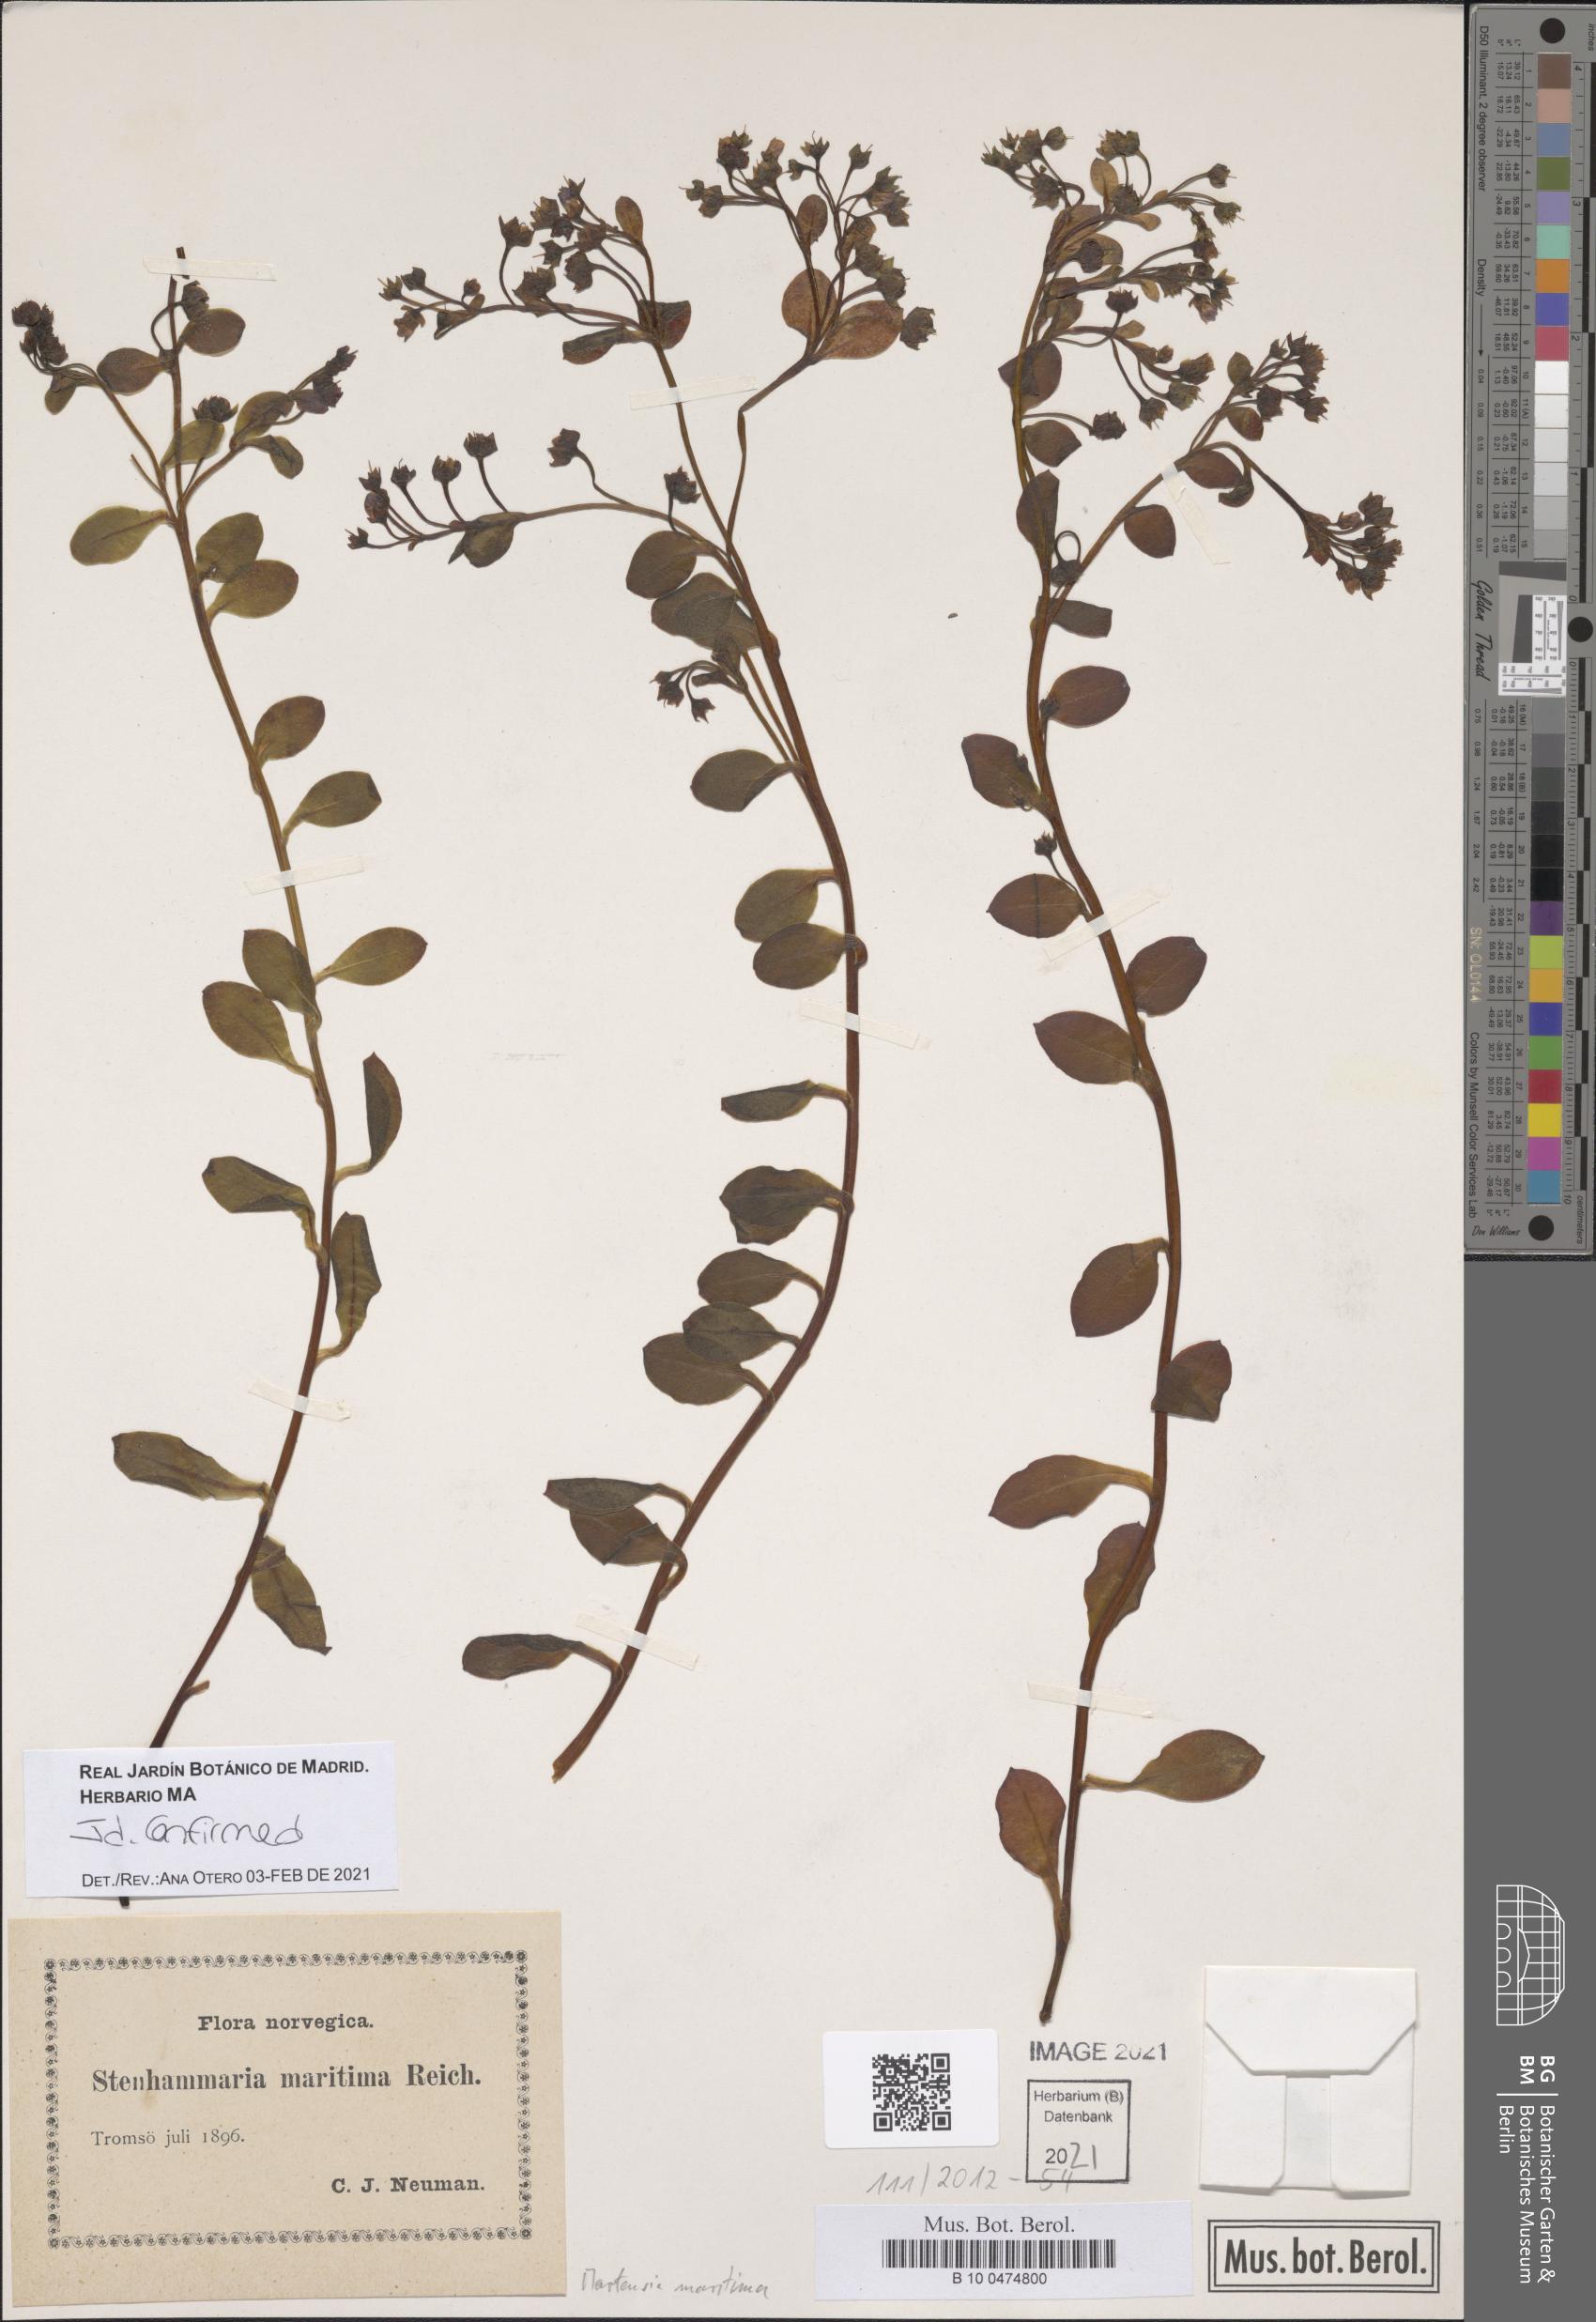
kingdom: Plantae
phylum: Tracheophyta
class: Magnoliopsida
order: Boraginales
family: Boraginaceae
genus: Mertensia
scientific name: Mertensia maritima
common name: Oysterplant
